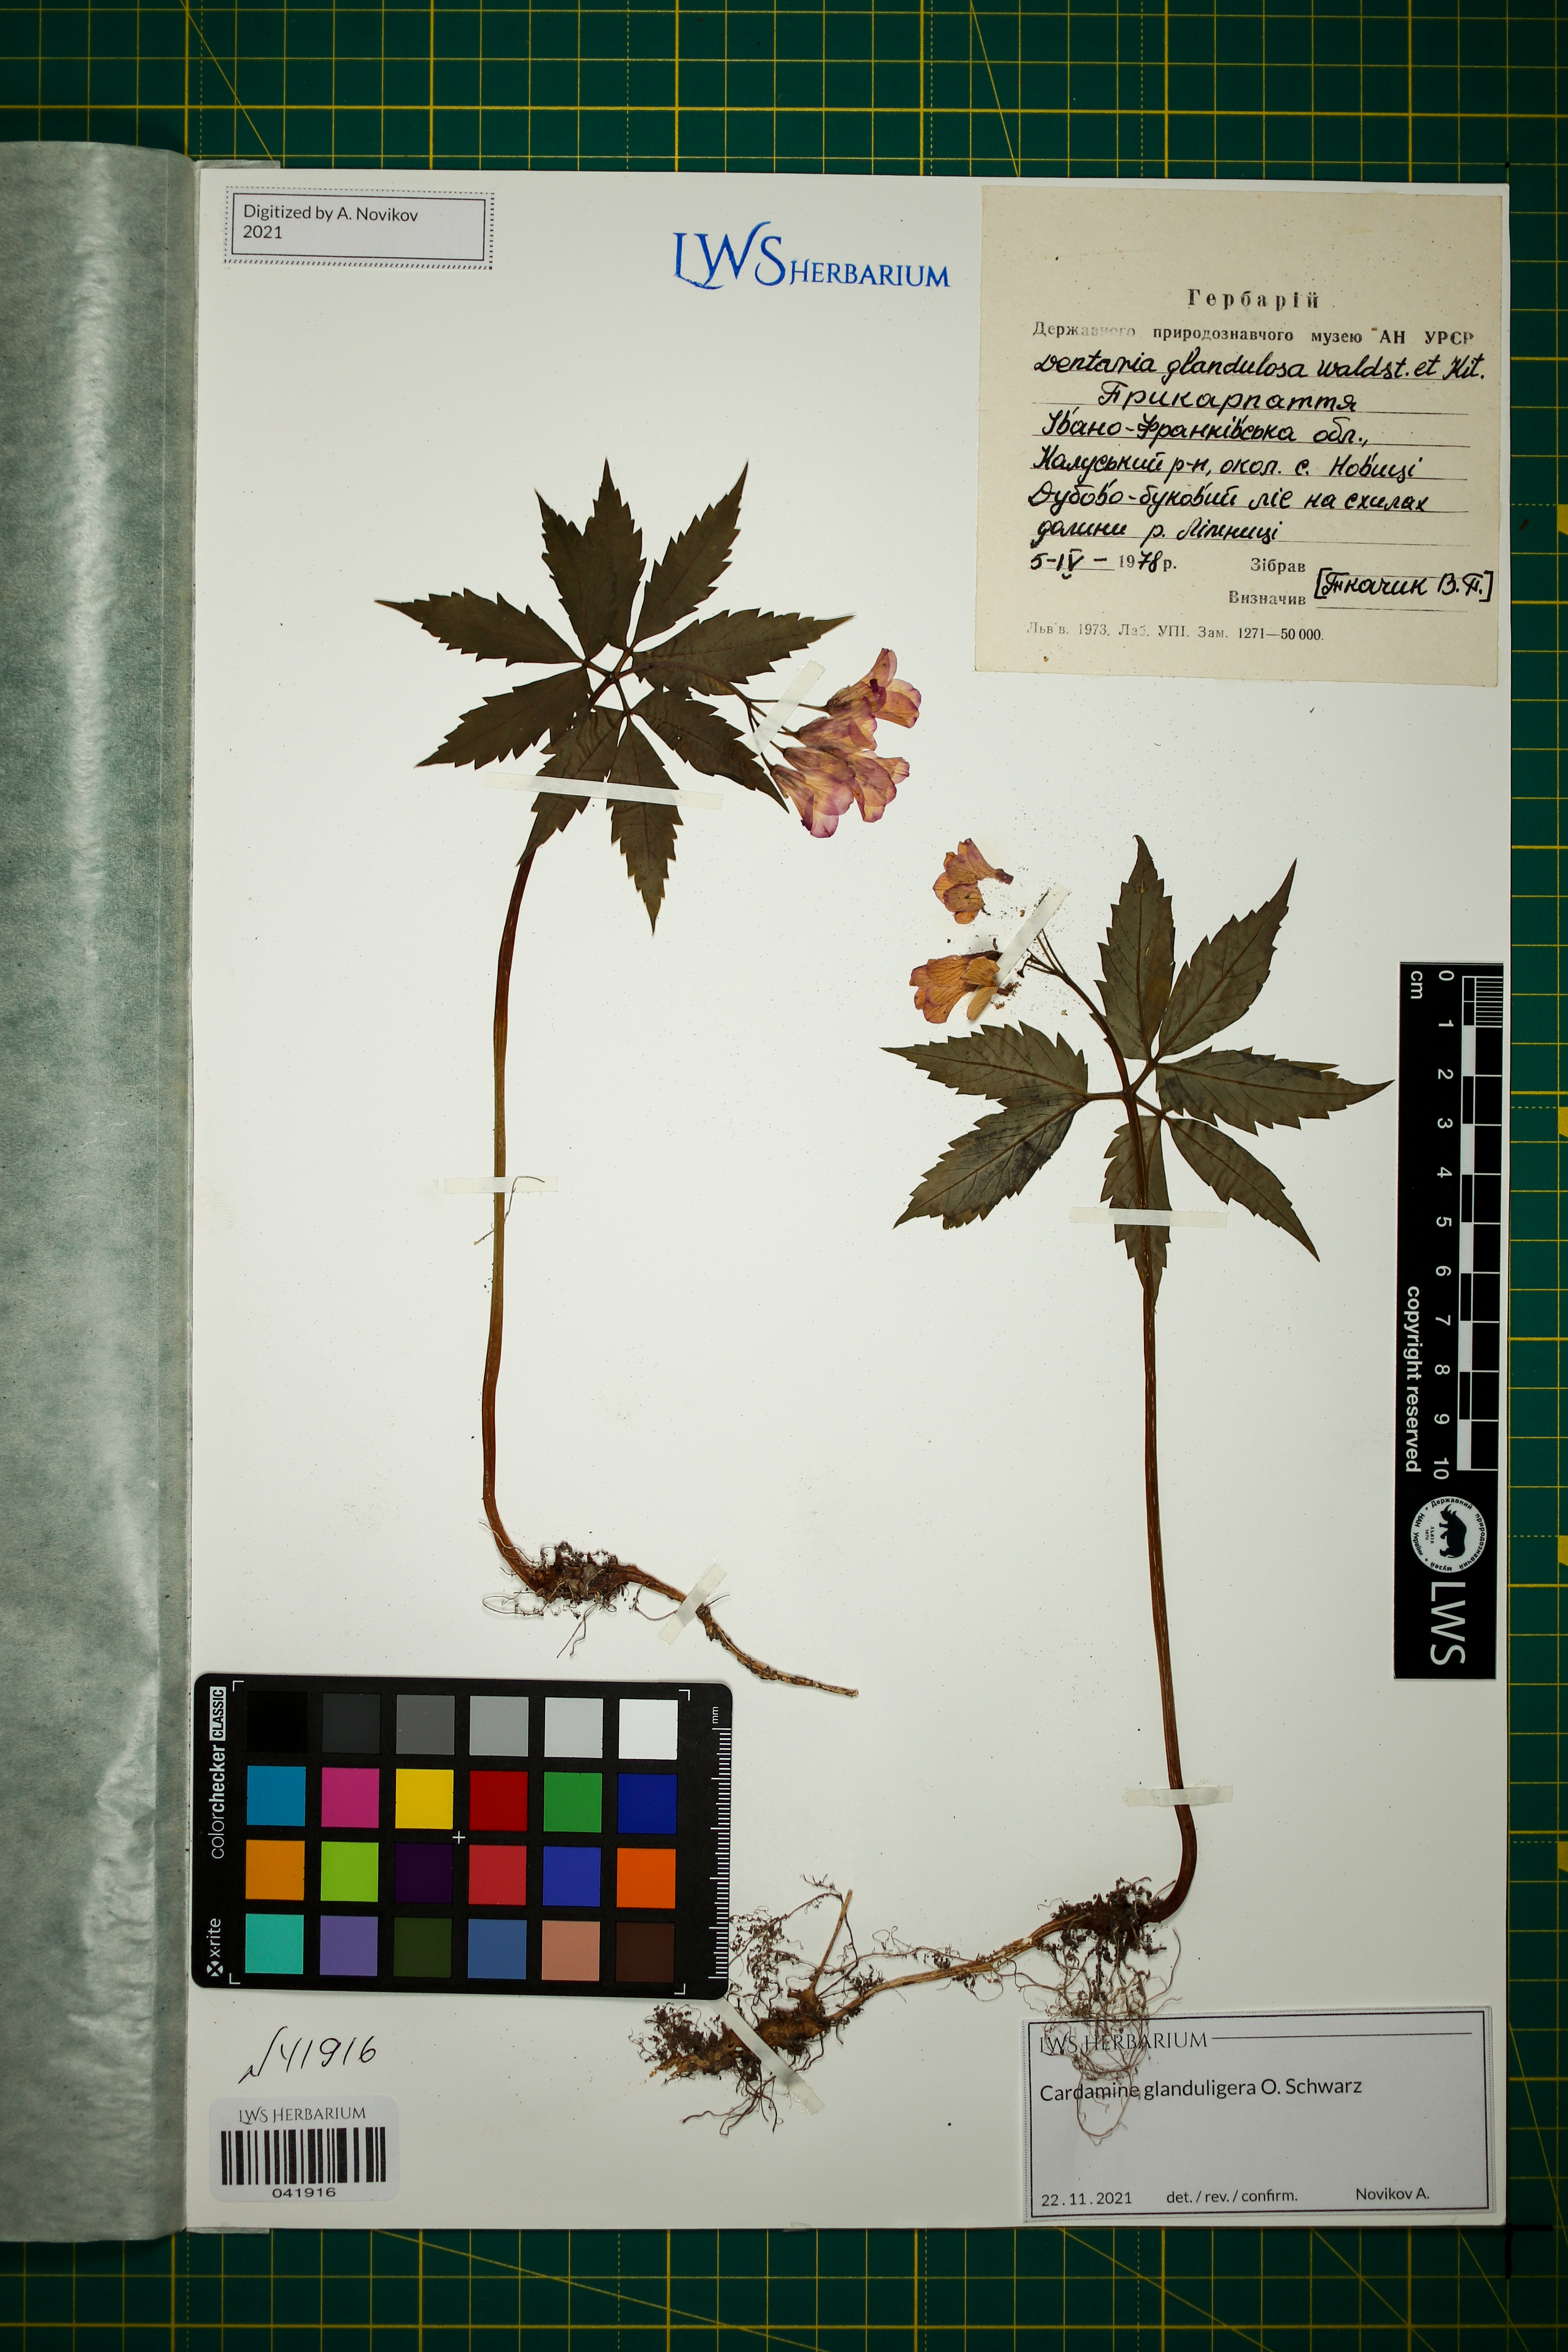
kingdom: Plantae
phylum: Tracheophyta
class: Magnoliopsida
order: Brassicales
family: Brassicaceae
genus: Cardamine
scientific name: Cardamine glanduligera
